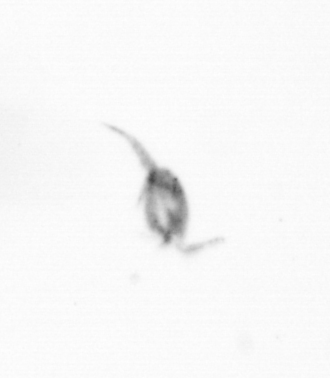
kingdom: Animalia
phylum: Arthropoda
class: Copepoda
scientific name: Copepoda
